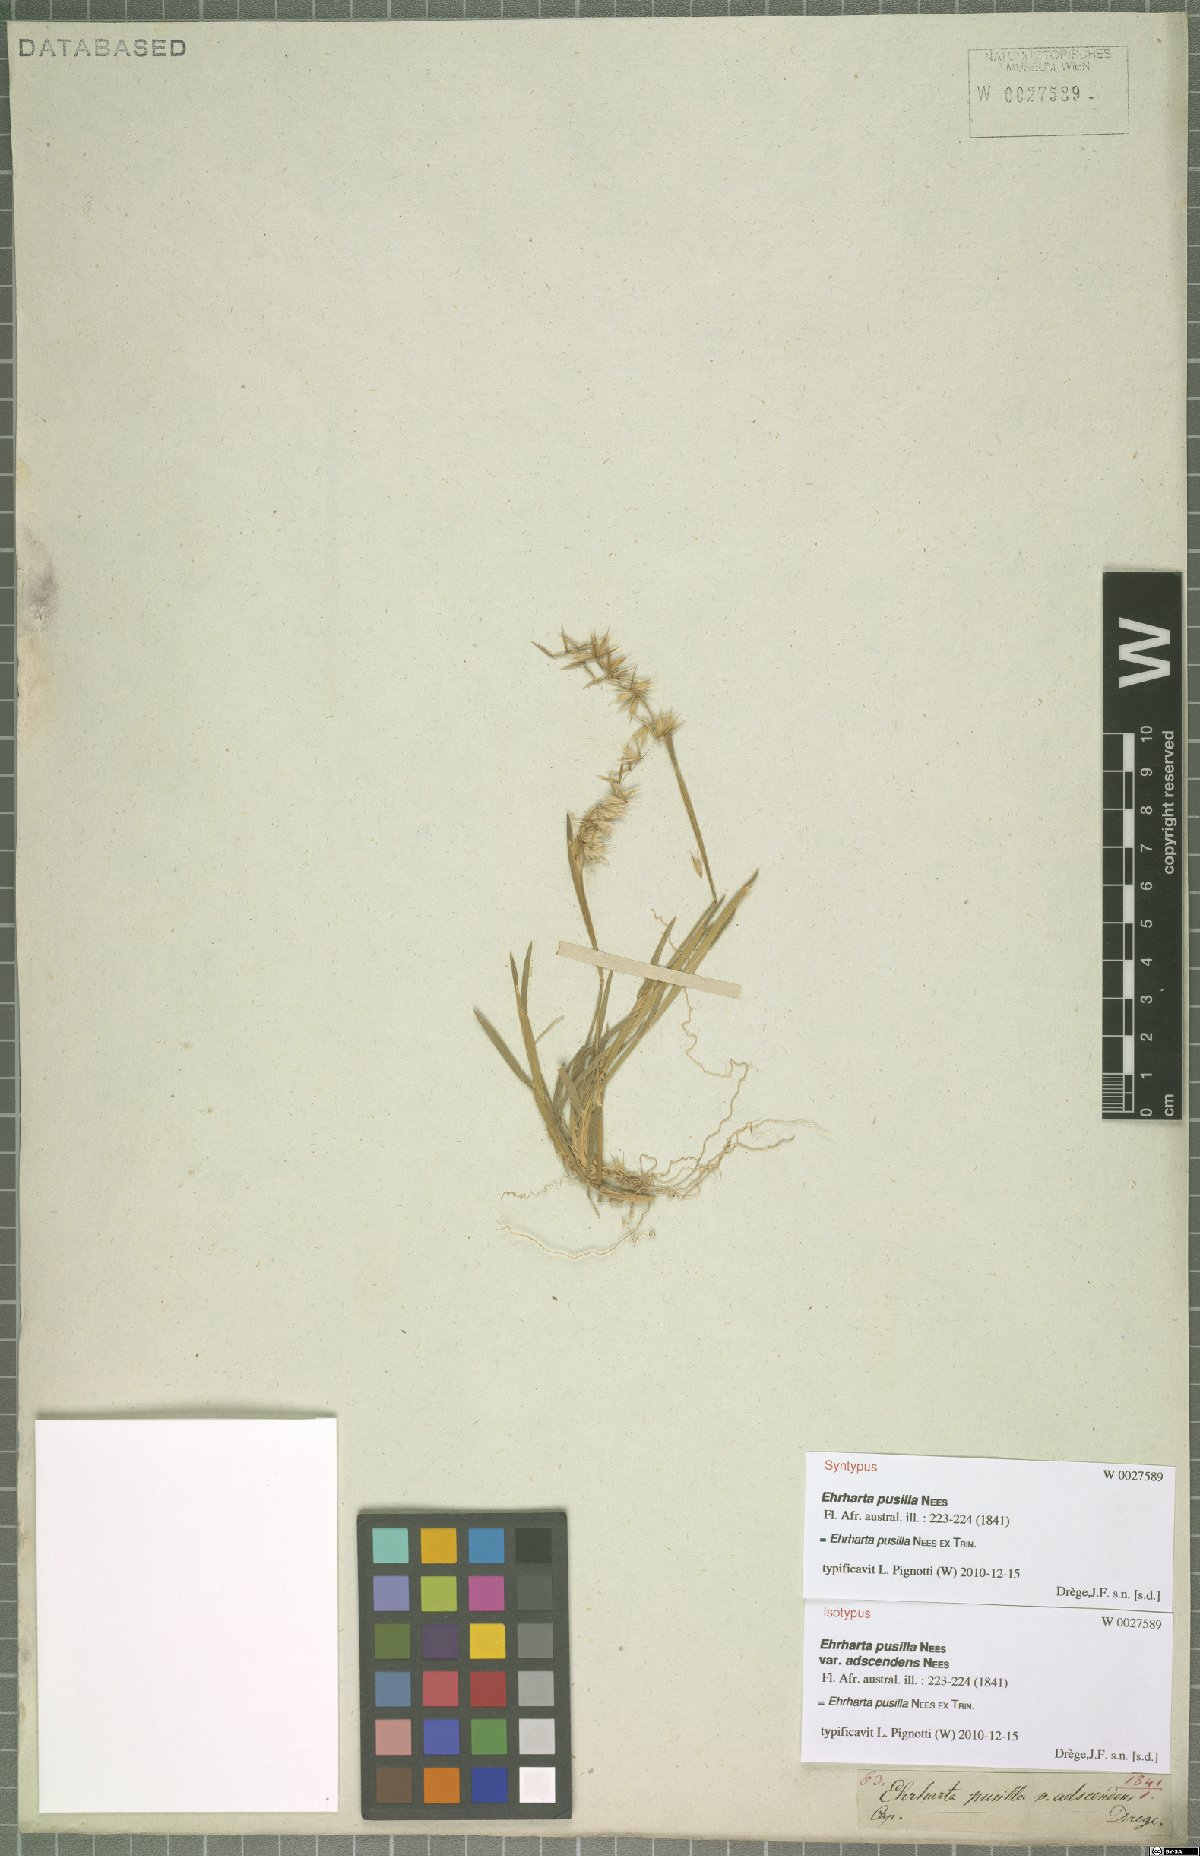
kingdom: Plantae
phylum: Tracheophyta
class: Liliopsida
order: Poales
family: Poaceae
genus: Ehrharta
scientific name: Ehrharta pusilla
